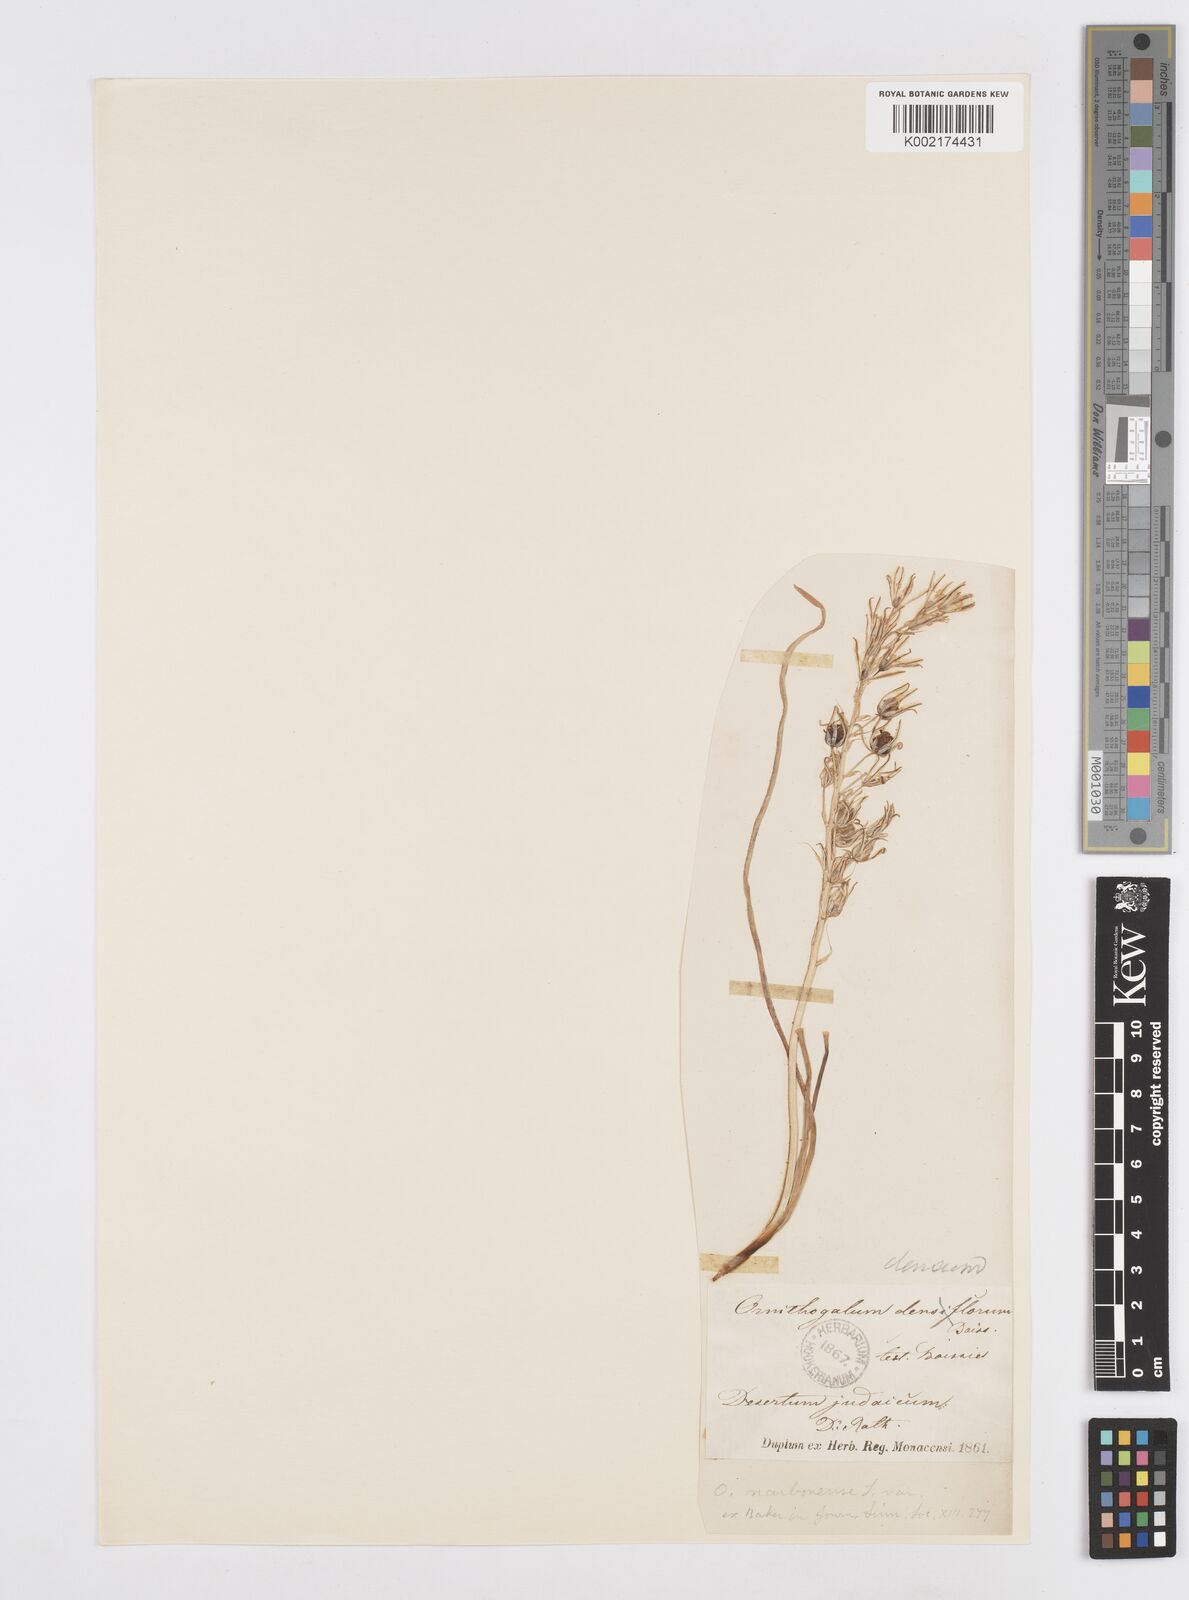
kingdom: Plantae
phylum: Tracheophyta
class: Liliopsida
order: Asparagales
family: Asparagaceae
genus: Ornithogalum
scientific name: Ornithogalum narbonense
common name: Bath-asparagus
